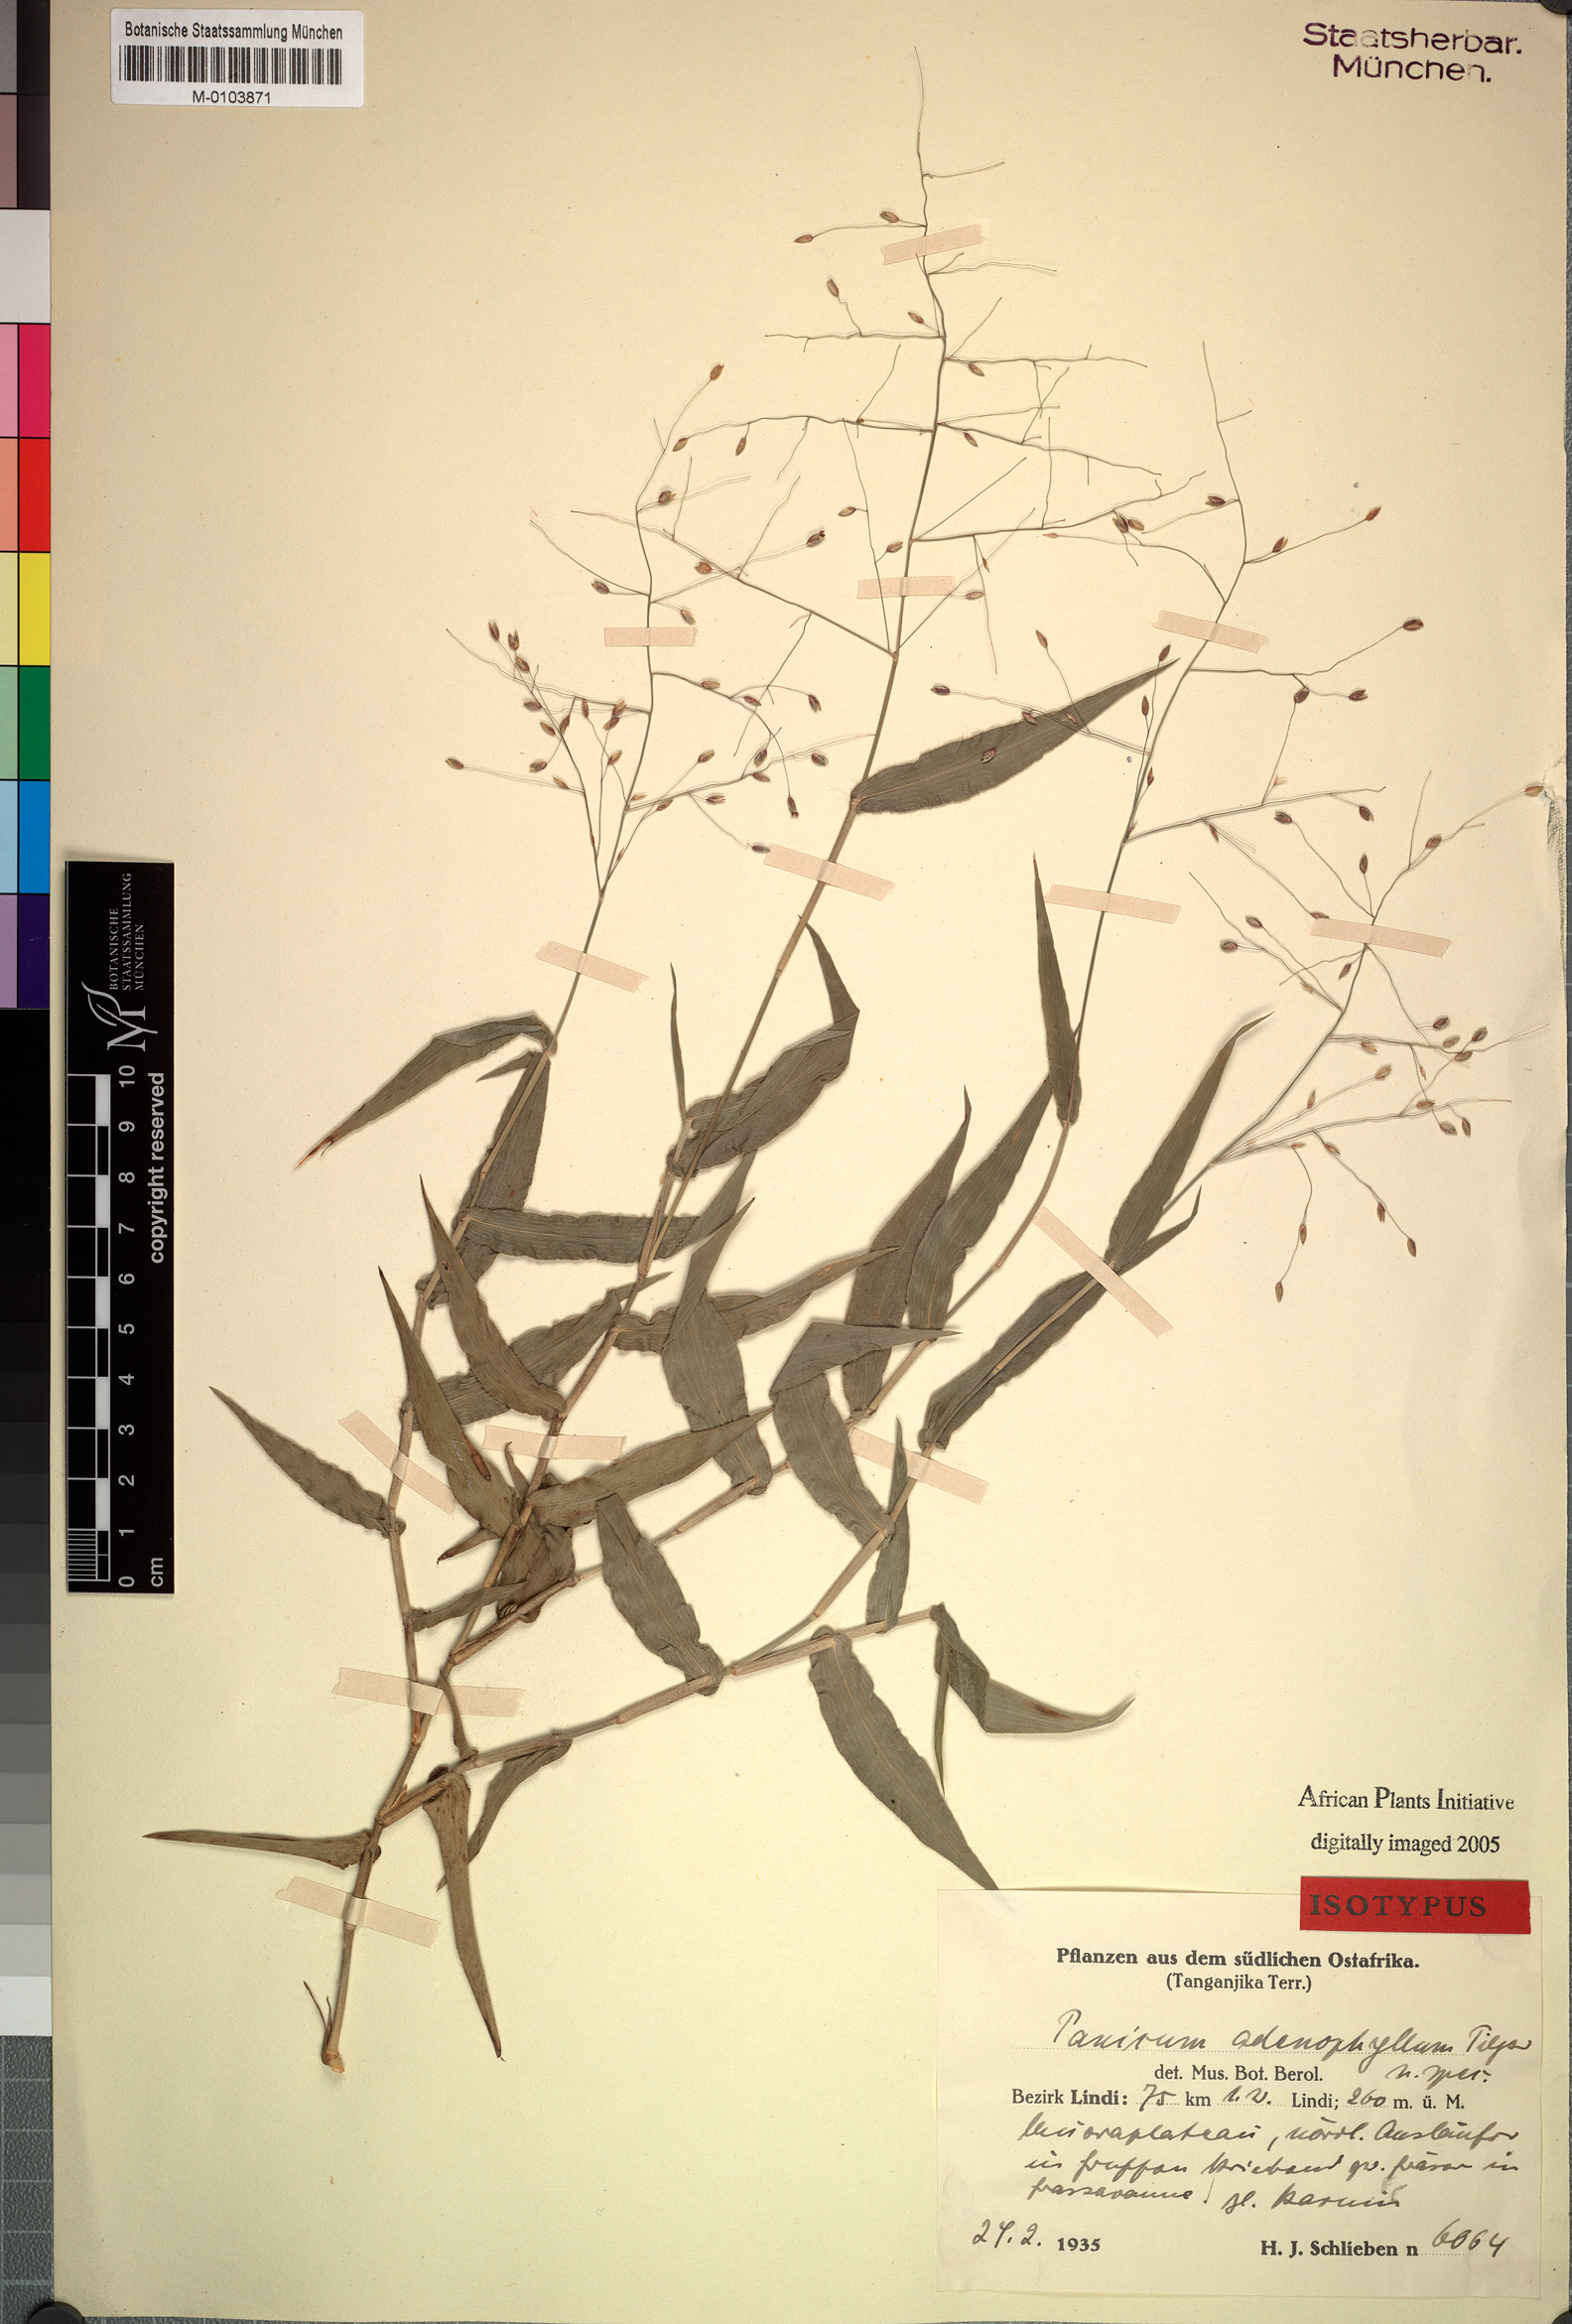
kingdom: Plantae
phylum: Tracheophyta
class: Liliopsida
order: Poales
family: Poaceae
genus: Adenochloa
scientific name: Adenochloa adenophora
